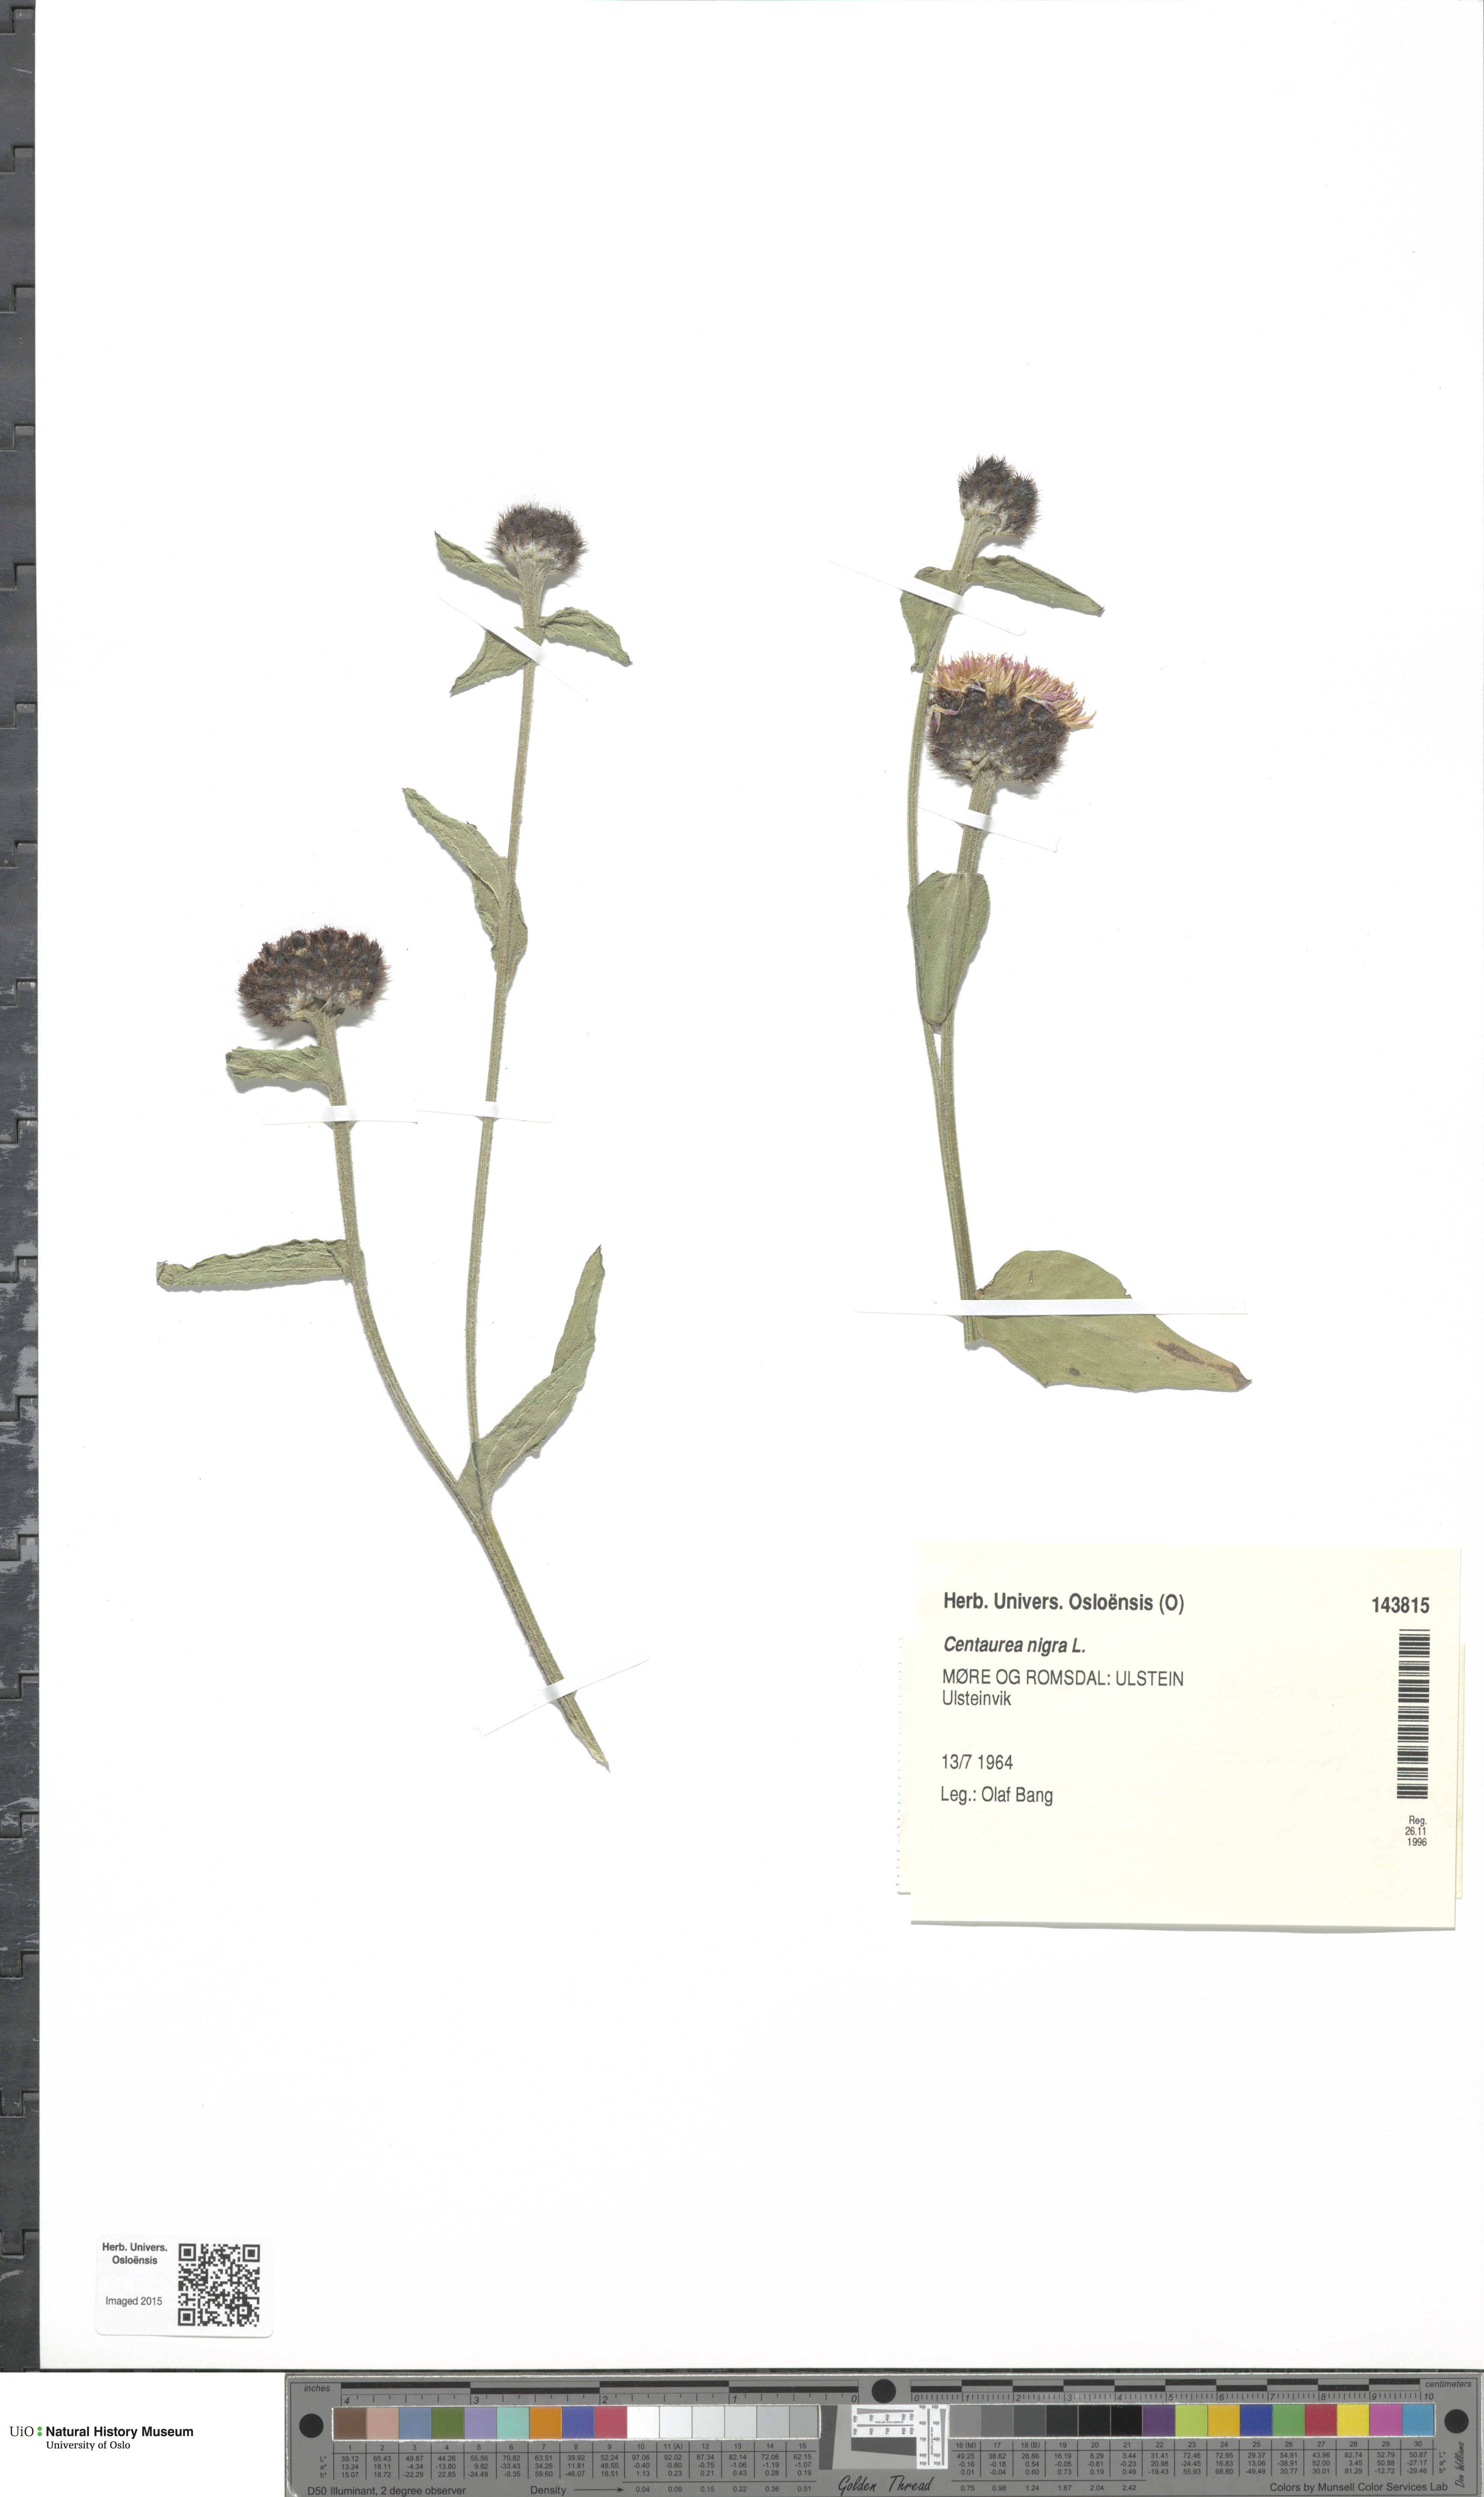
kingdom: Plantae
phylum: Tracheophyta
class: Magnoliopsida
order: Asterales
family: Asteraceae
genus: Centaurea
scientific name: Centaurea nigra
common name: Lesser knapweed
